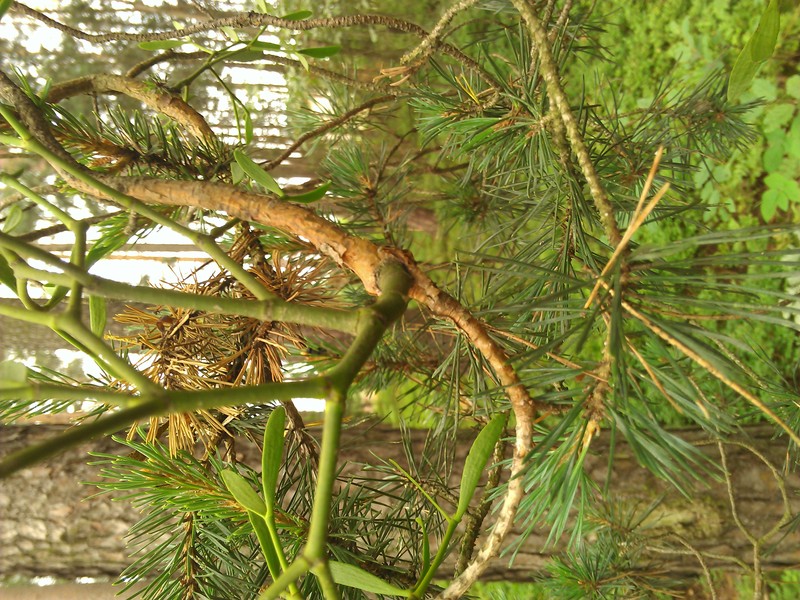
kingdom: Plantae
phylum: Tracheophyta
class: Magnoliopsida
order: Santalales
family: Viscaceae
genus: Viscum
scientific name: Viscum album
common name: Mistletoe
